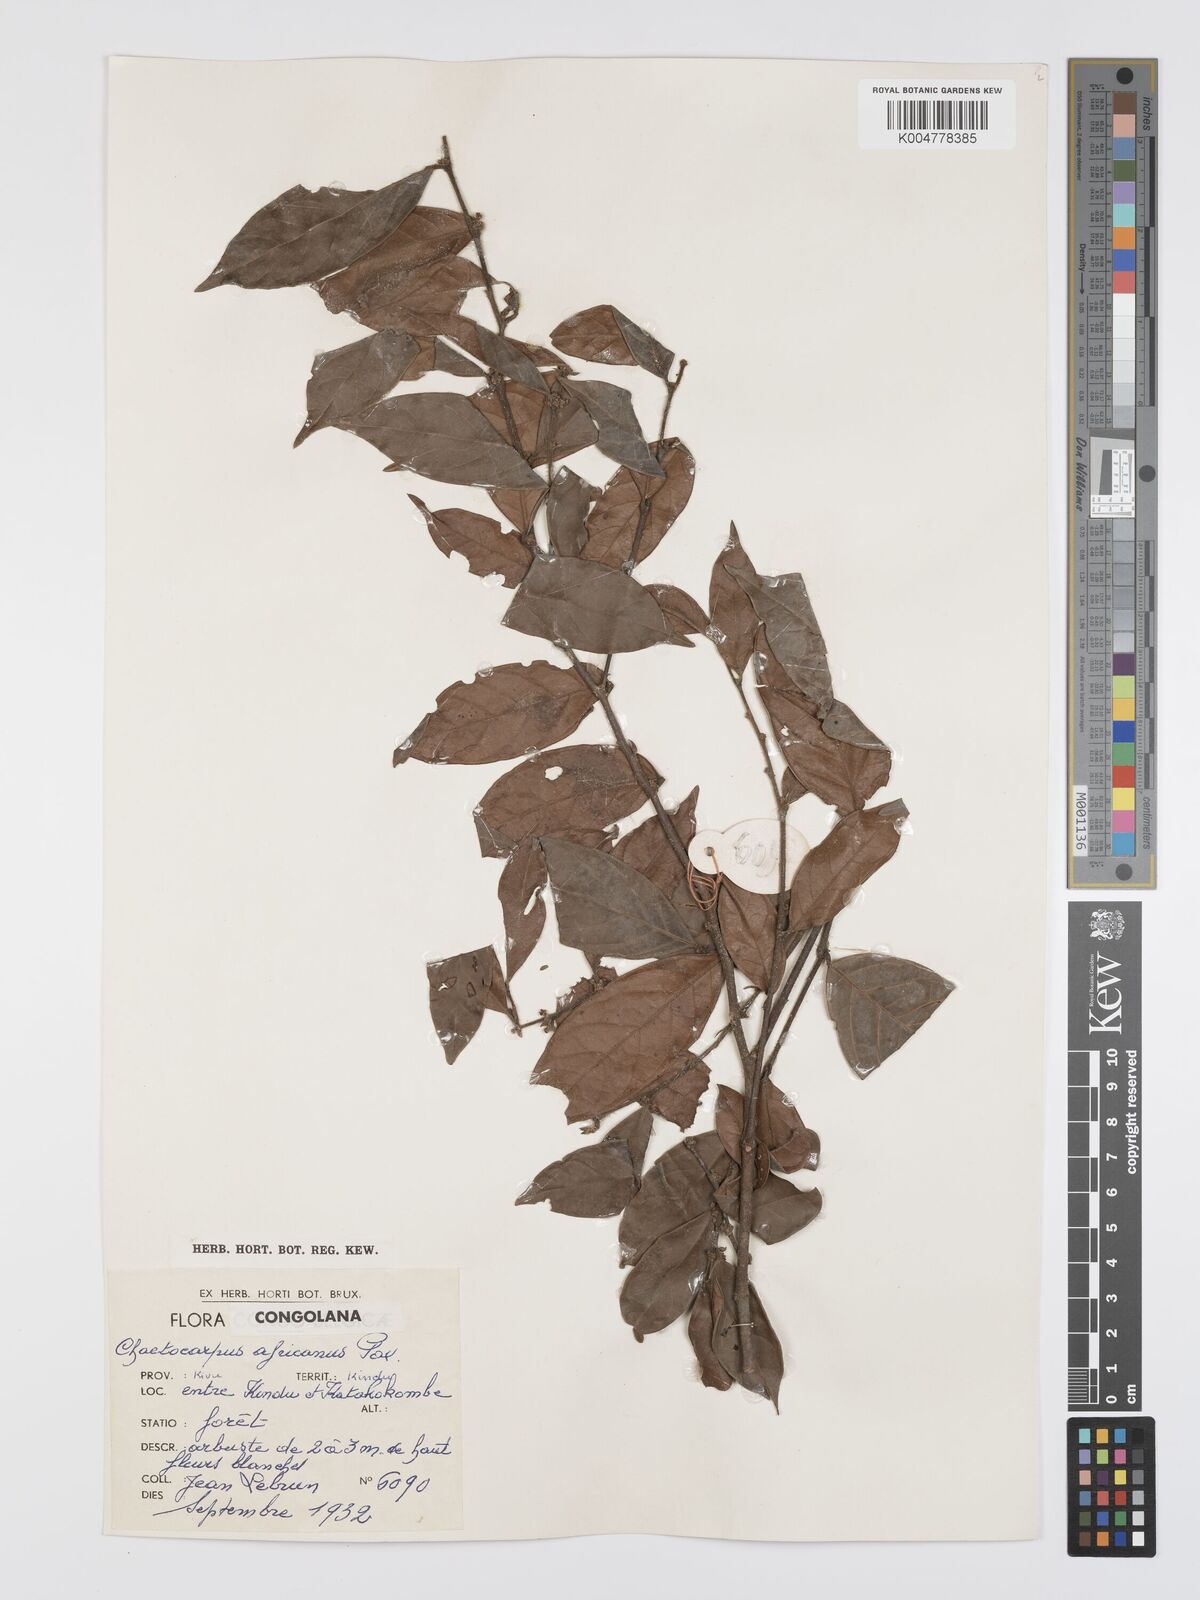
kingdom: Plantae
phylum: Tracheophyta
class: Magnoliopsida
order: Malpighiales
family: Peraceae
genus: Chaetocarpus
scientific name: Chaetocarpus africanus
